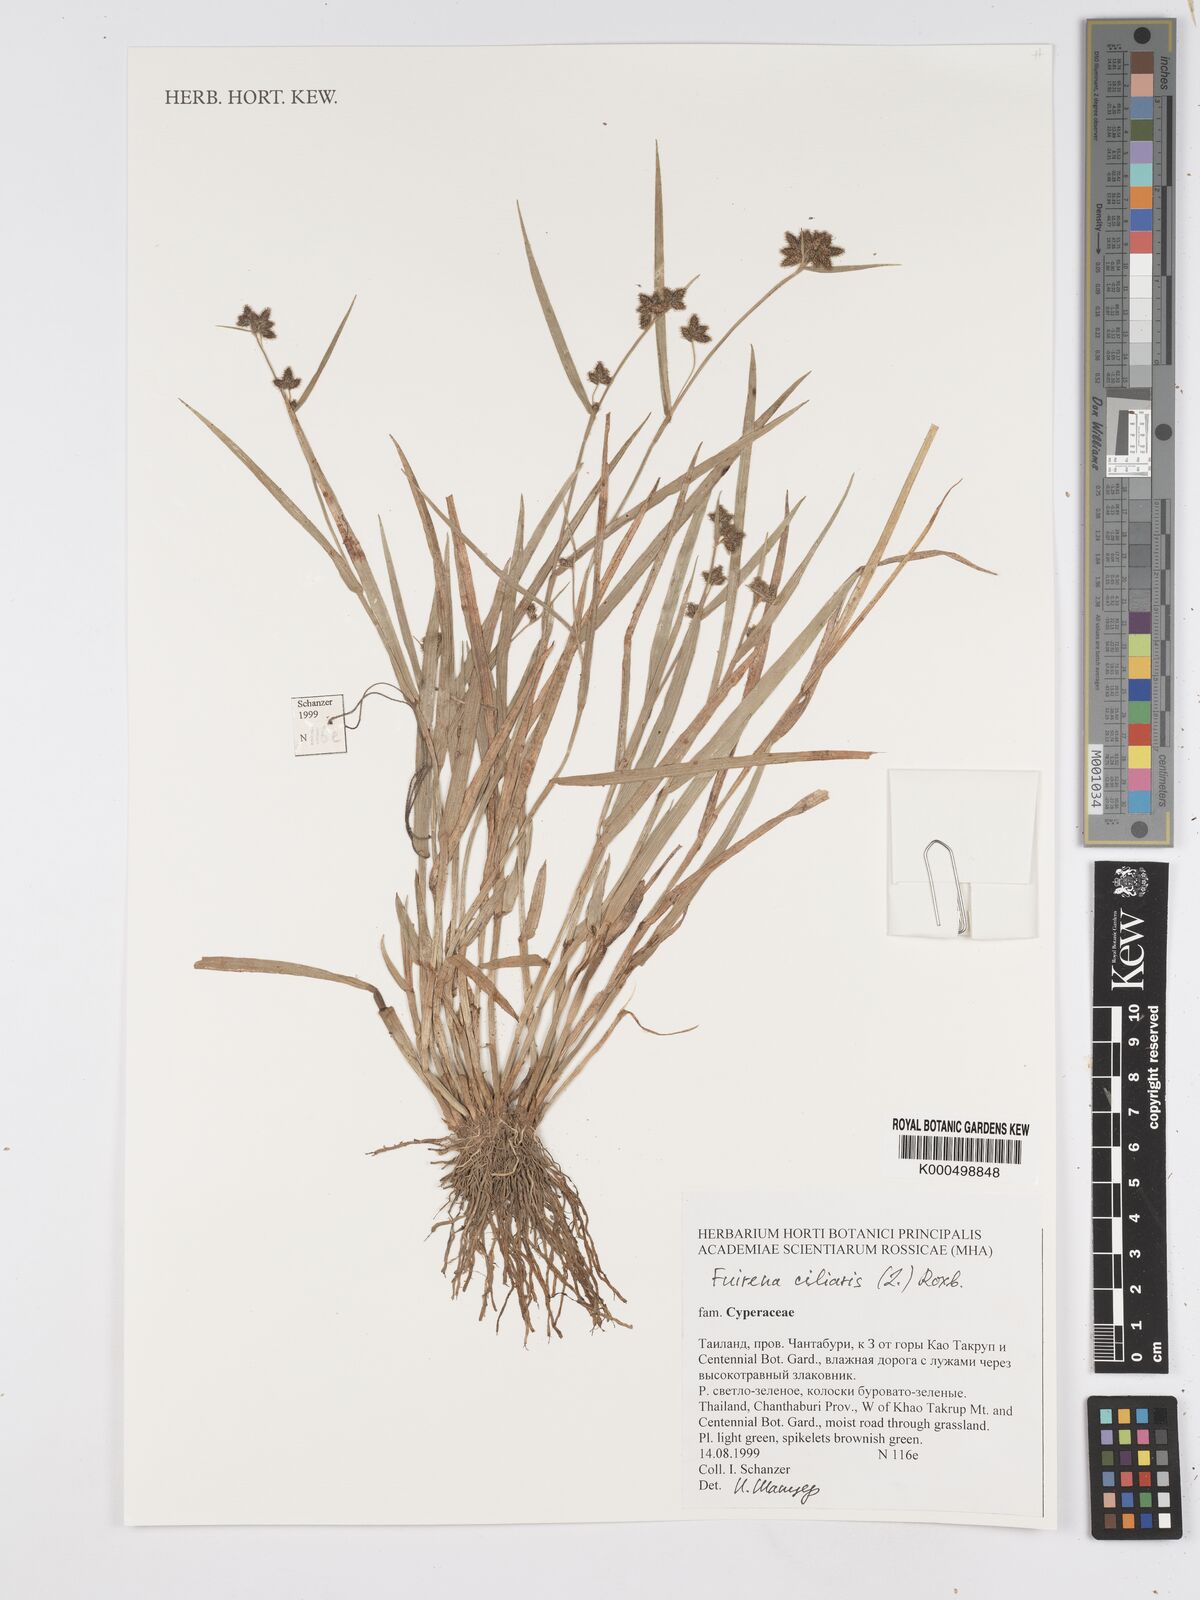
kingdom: Plantae
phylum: Tracheophyta
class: Liliopsida
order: Poales
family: Cyperaceae
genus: Fuirena
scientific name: Fuirena ciliaris
